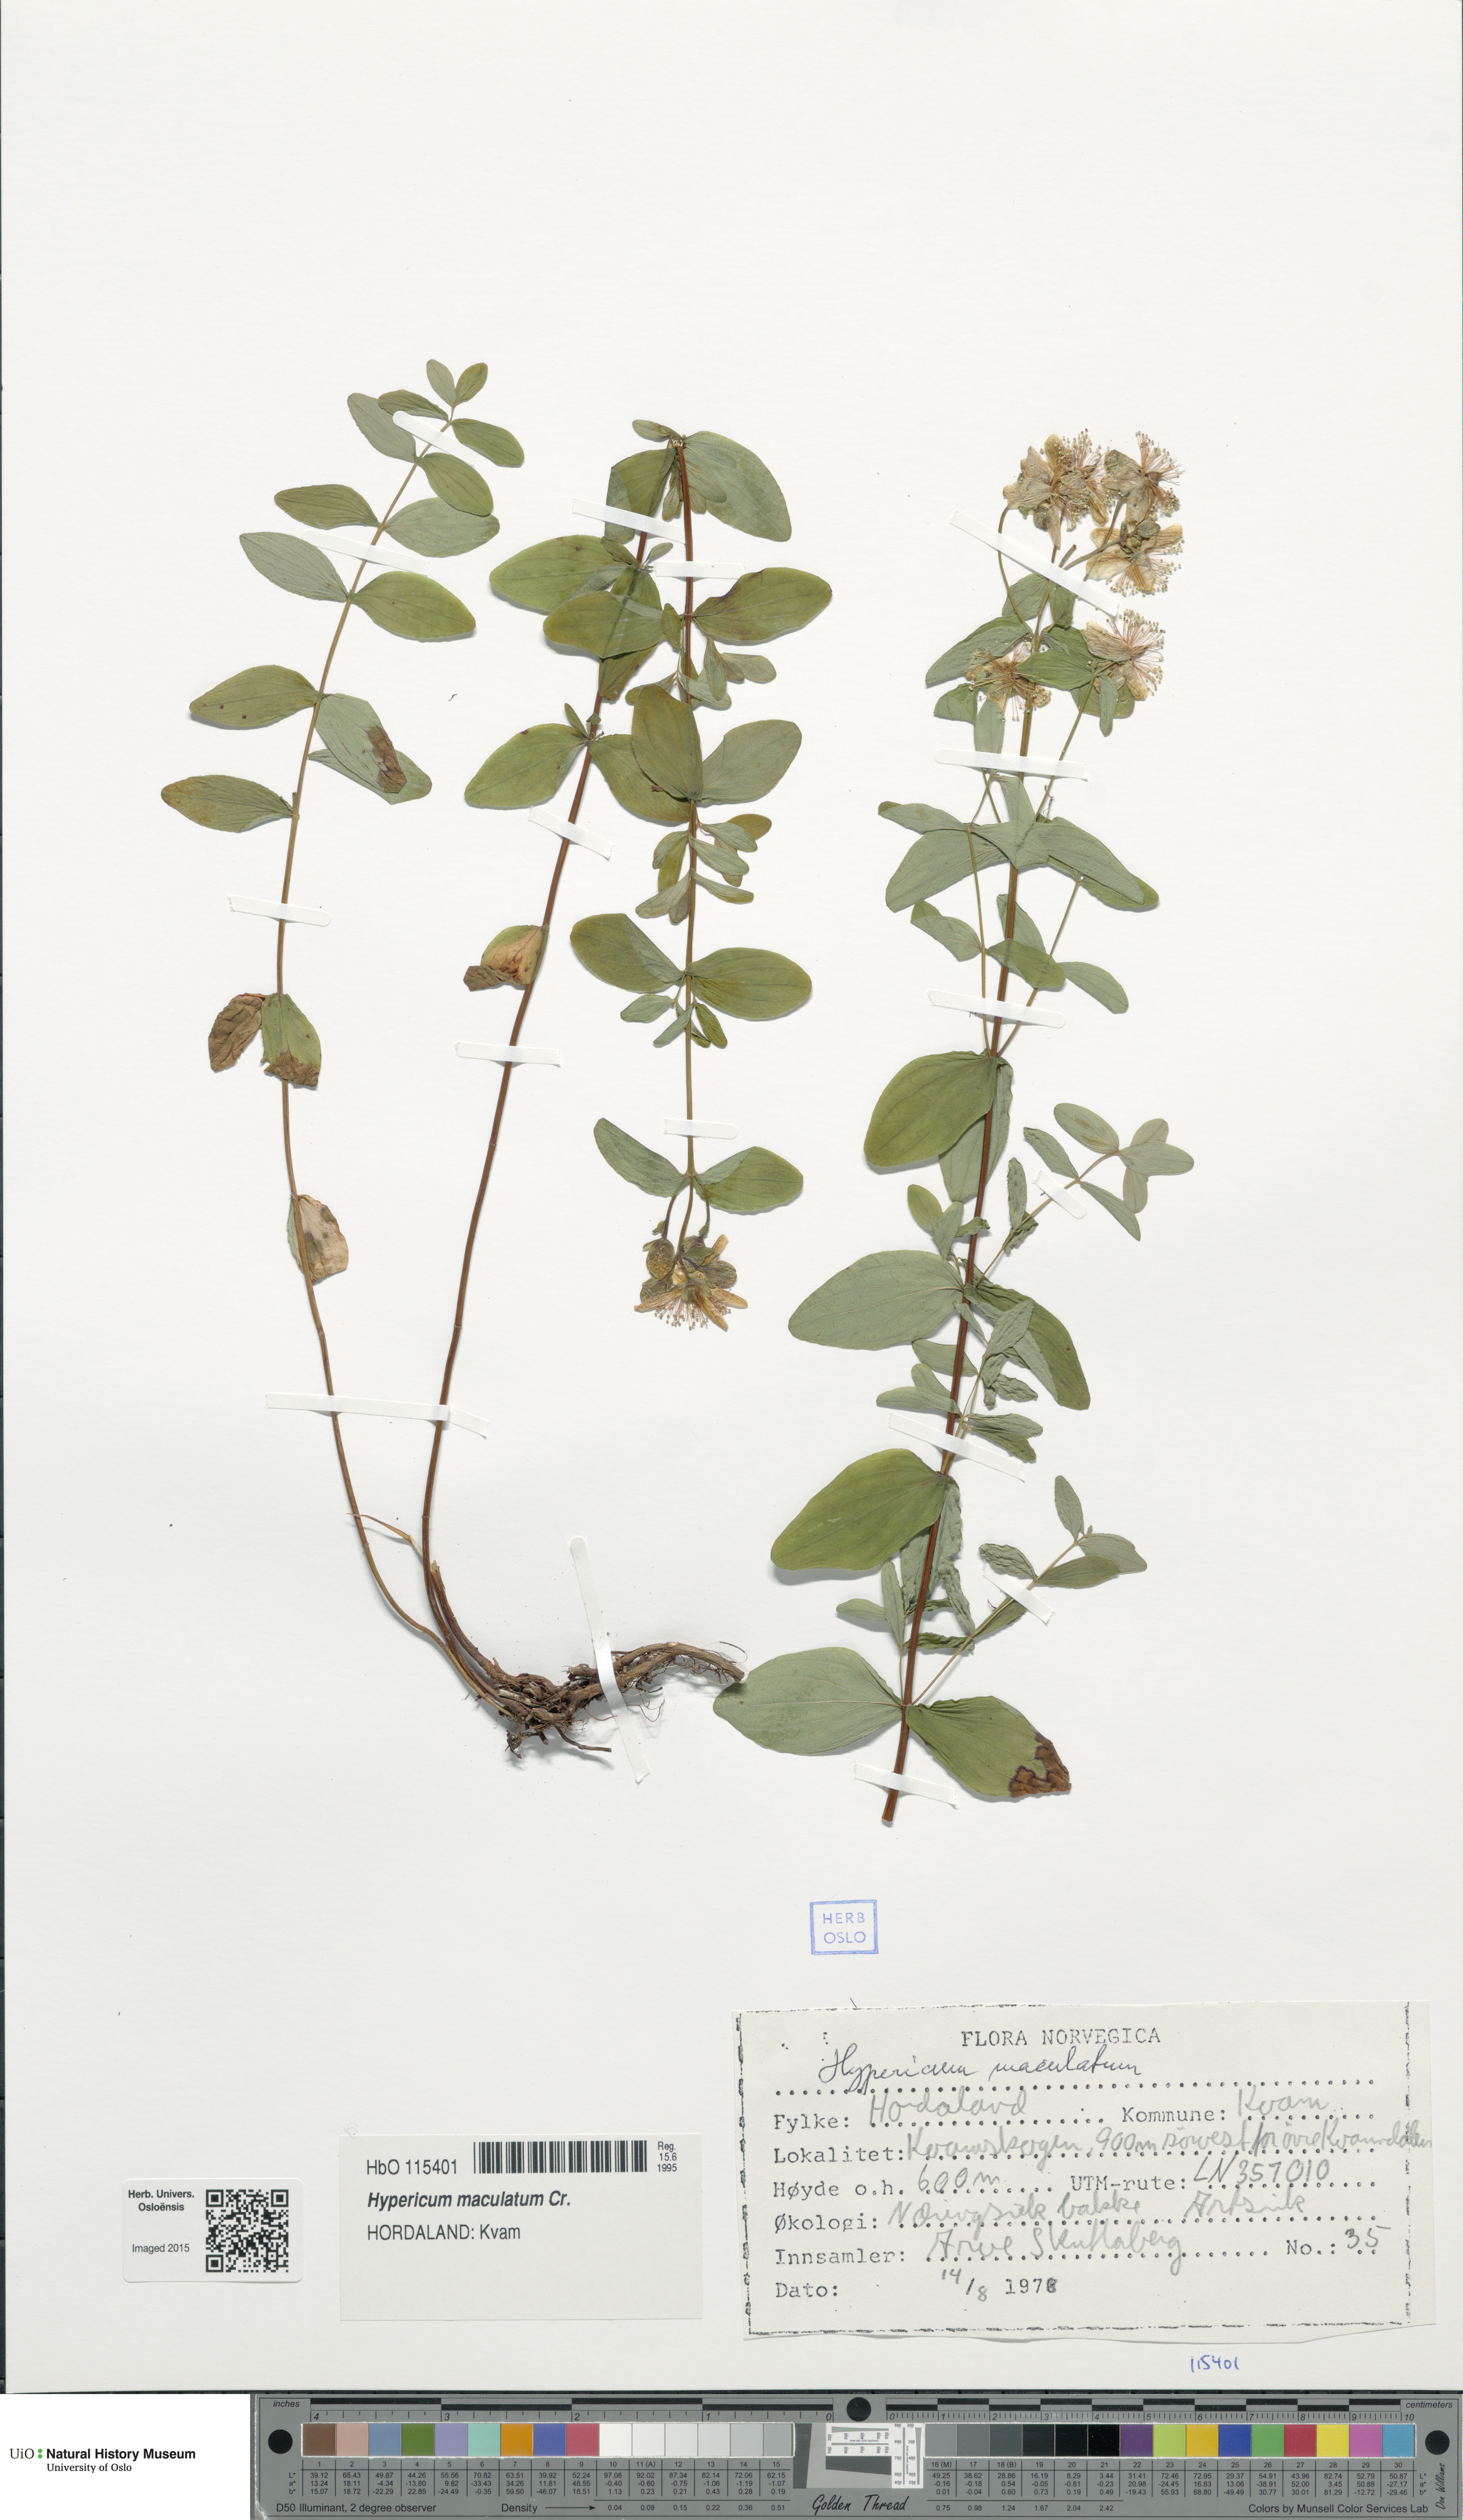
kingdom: Plantae
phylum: Tracheophyta
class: Magnoliopsida
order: Malpighiales
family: Hypericaceae
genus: Hypericum
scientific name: Hypericum maculatum
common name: Imperforate st. john's-wort
